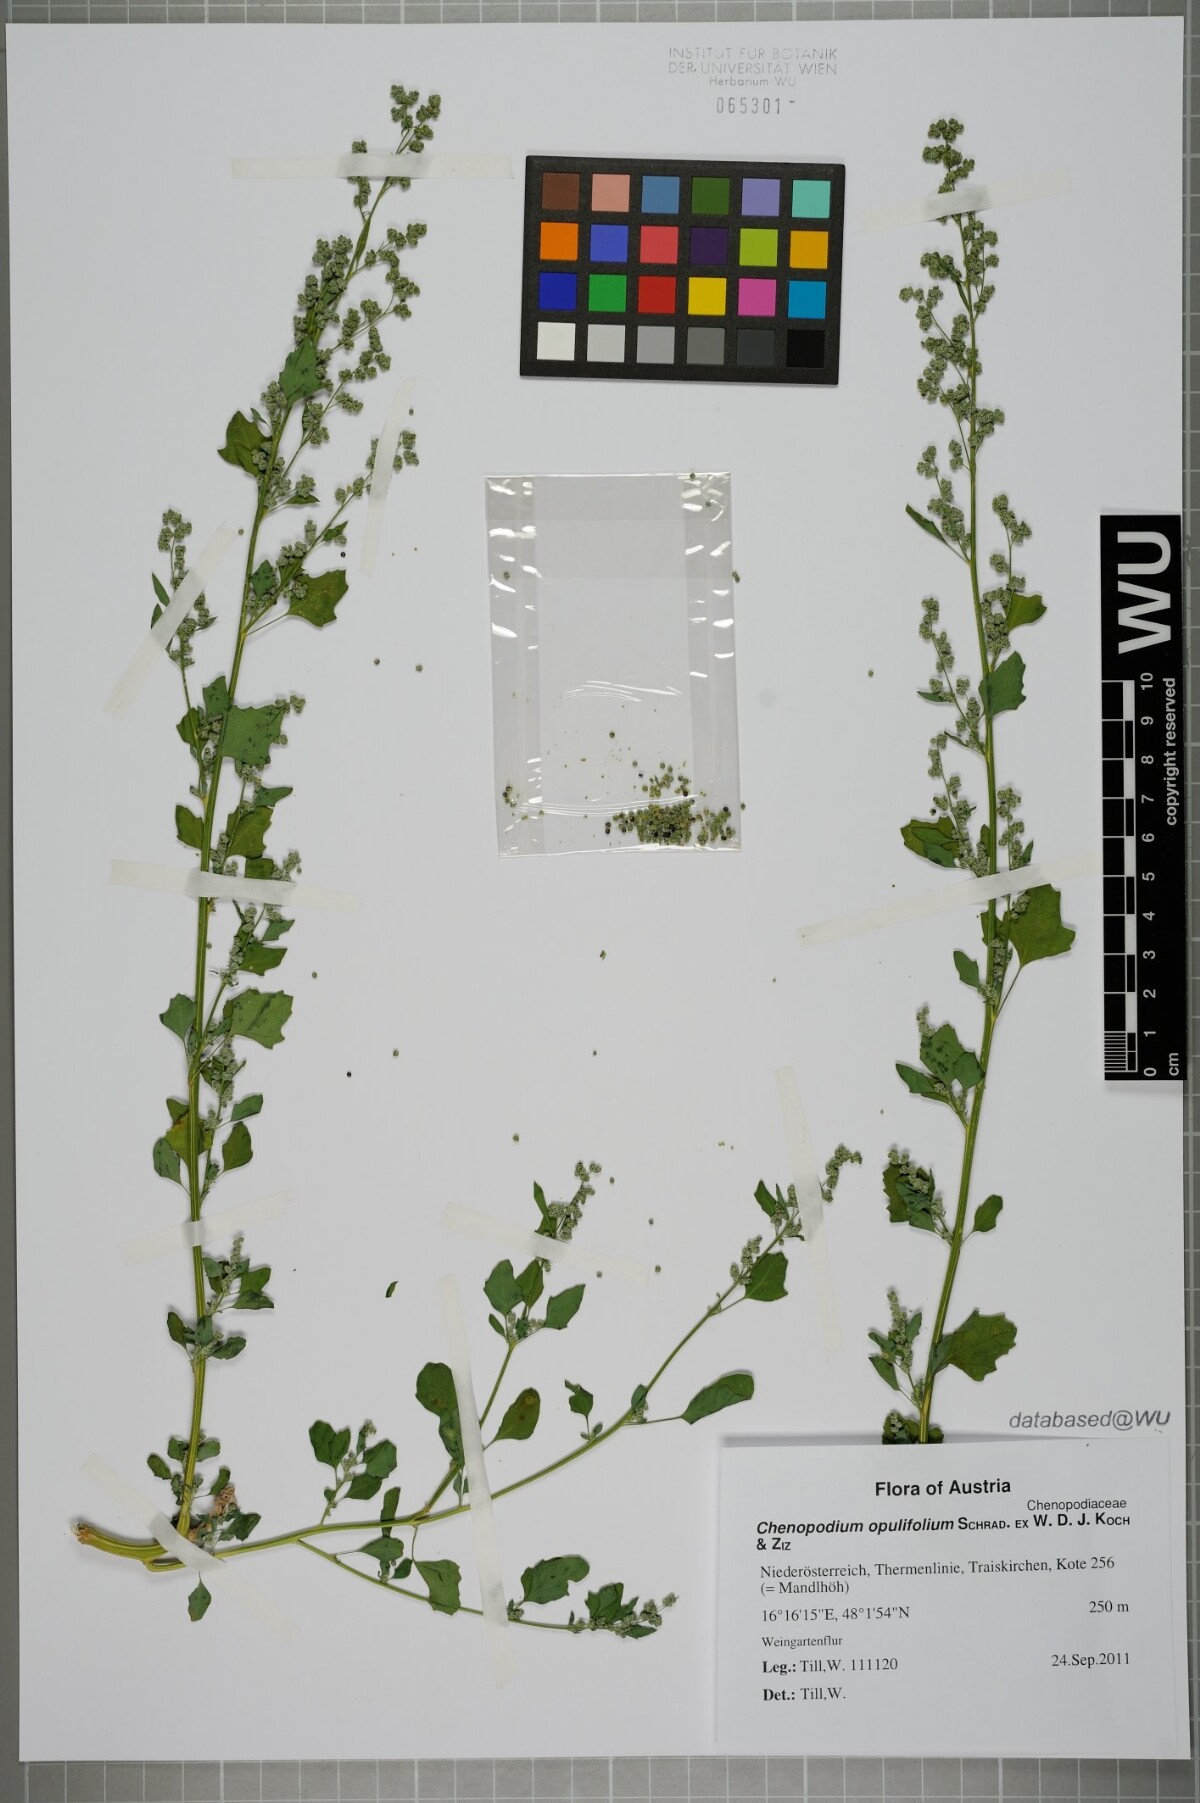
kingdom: Plantae
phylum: Tracheophyta
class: Magnoliopsida
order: Caryophyllales
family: Amaranthaceae
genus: Chenopodium
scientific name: Chenopodium opulifolium
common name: Grey goosefoot
